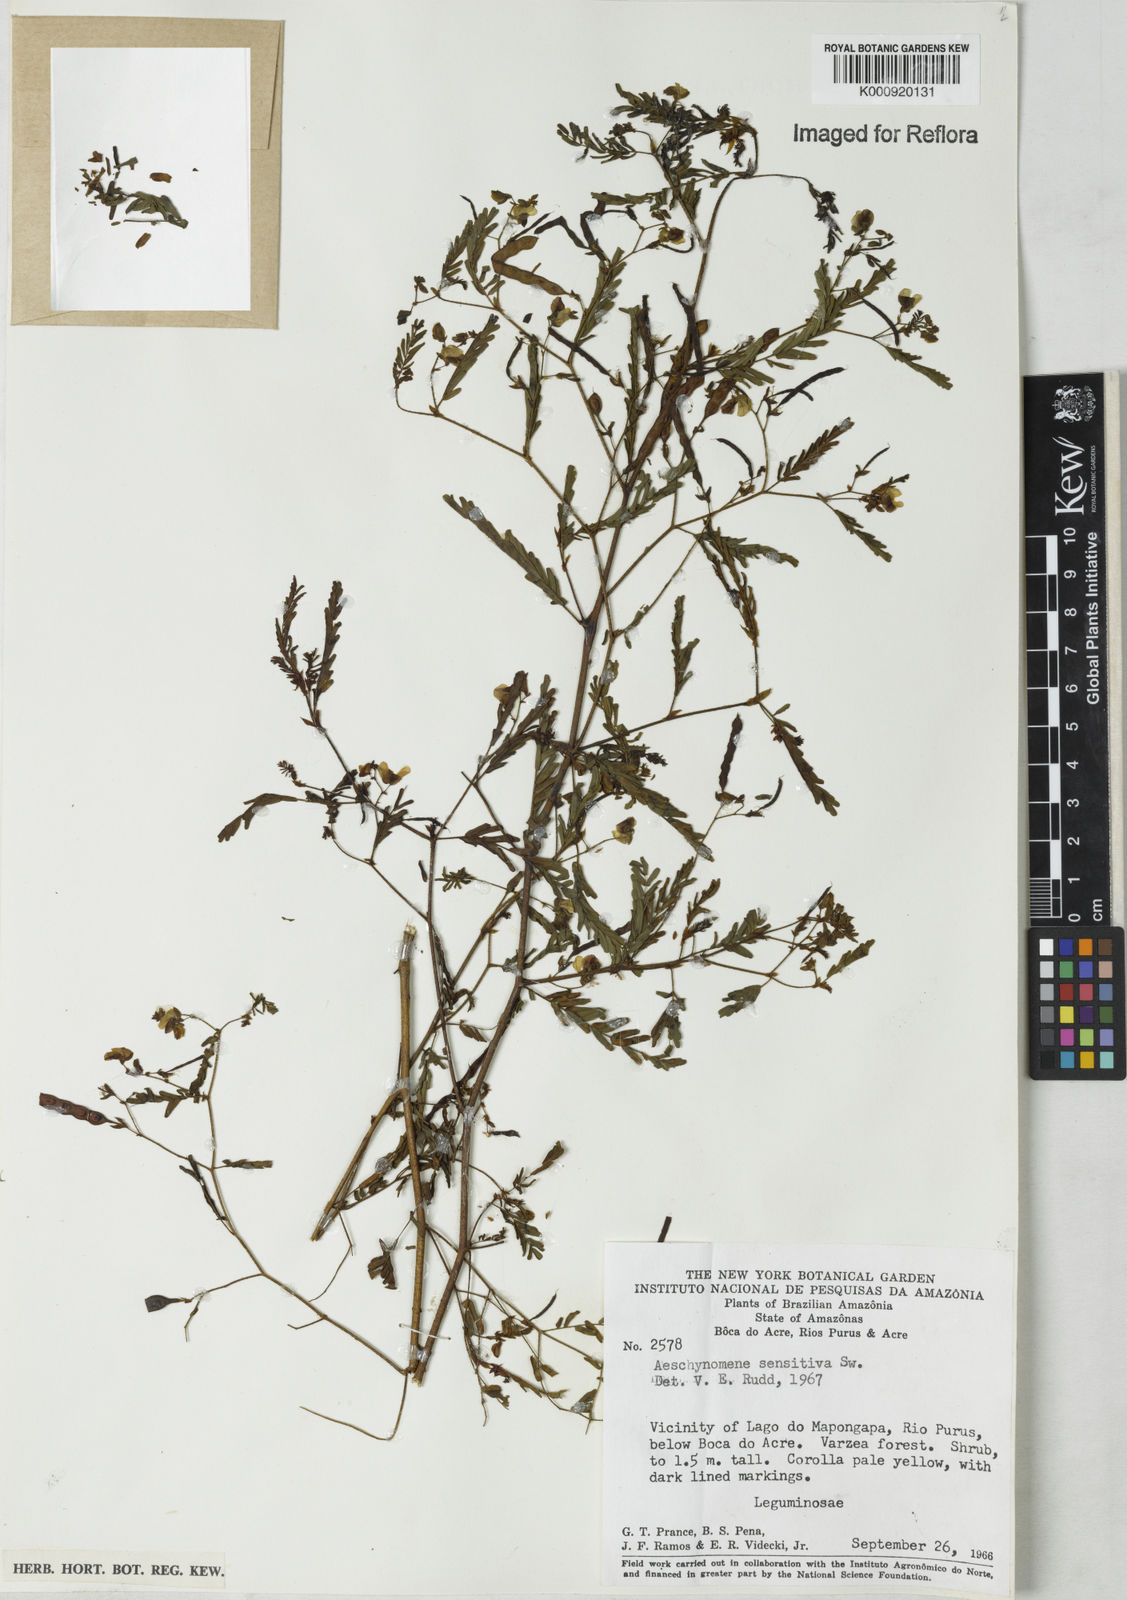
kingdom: Plantae
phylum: Tracheophyta
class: Magnoliopsida
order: Fabales
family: Fabaceae
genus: Aeschynomene
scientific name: Aeschynomene sensitiva
